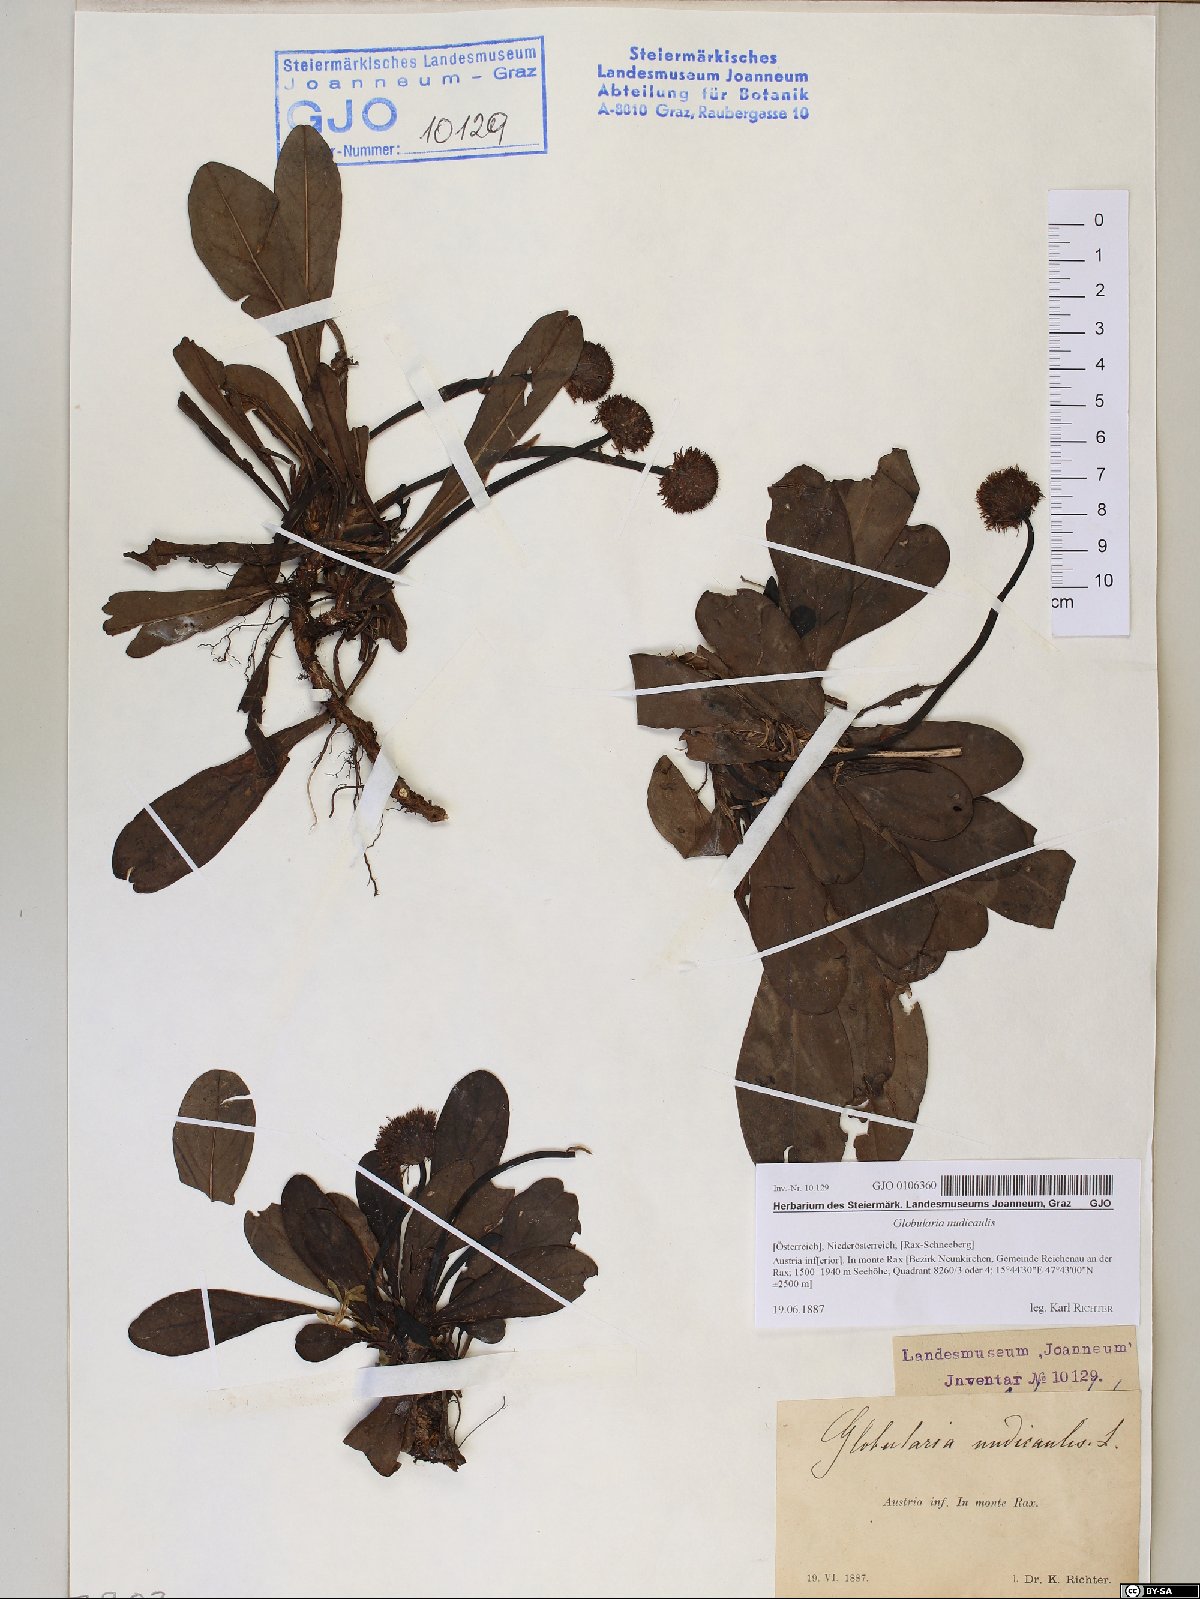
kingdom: Plantae
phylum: Tracheophyta
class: Magnoliopsida
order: Lamiales
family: Plantaginaceae
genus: Globularia
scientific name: Globularia nudicaulis
